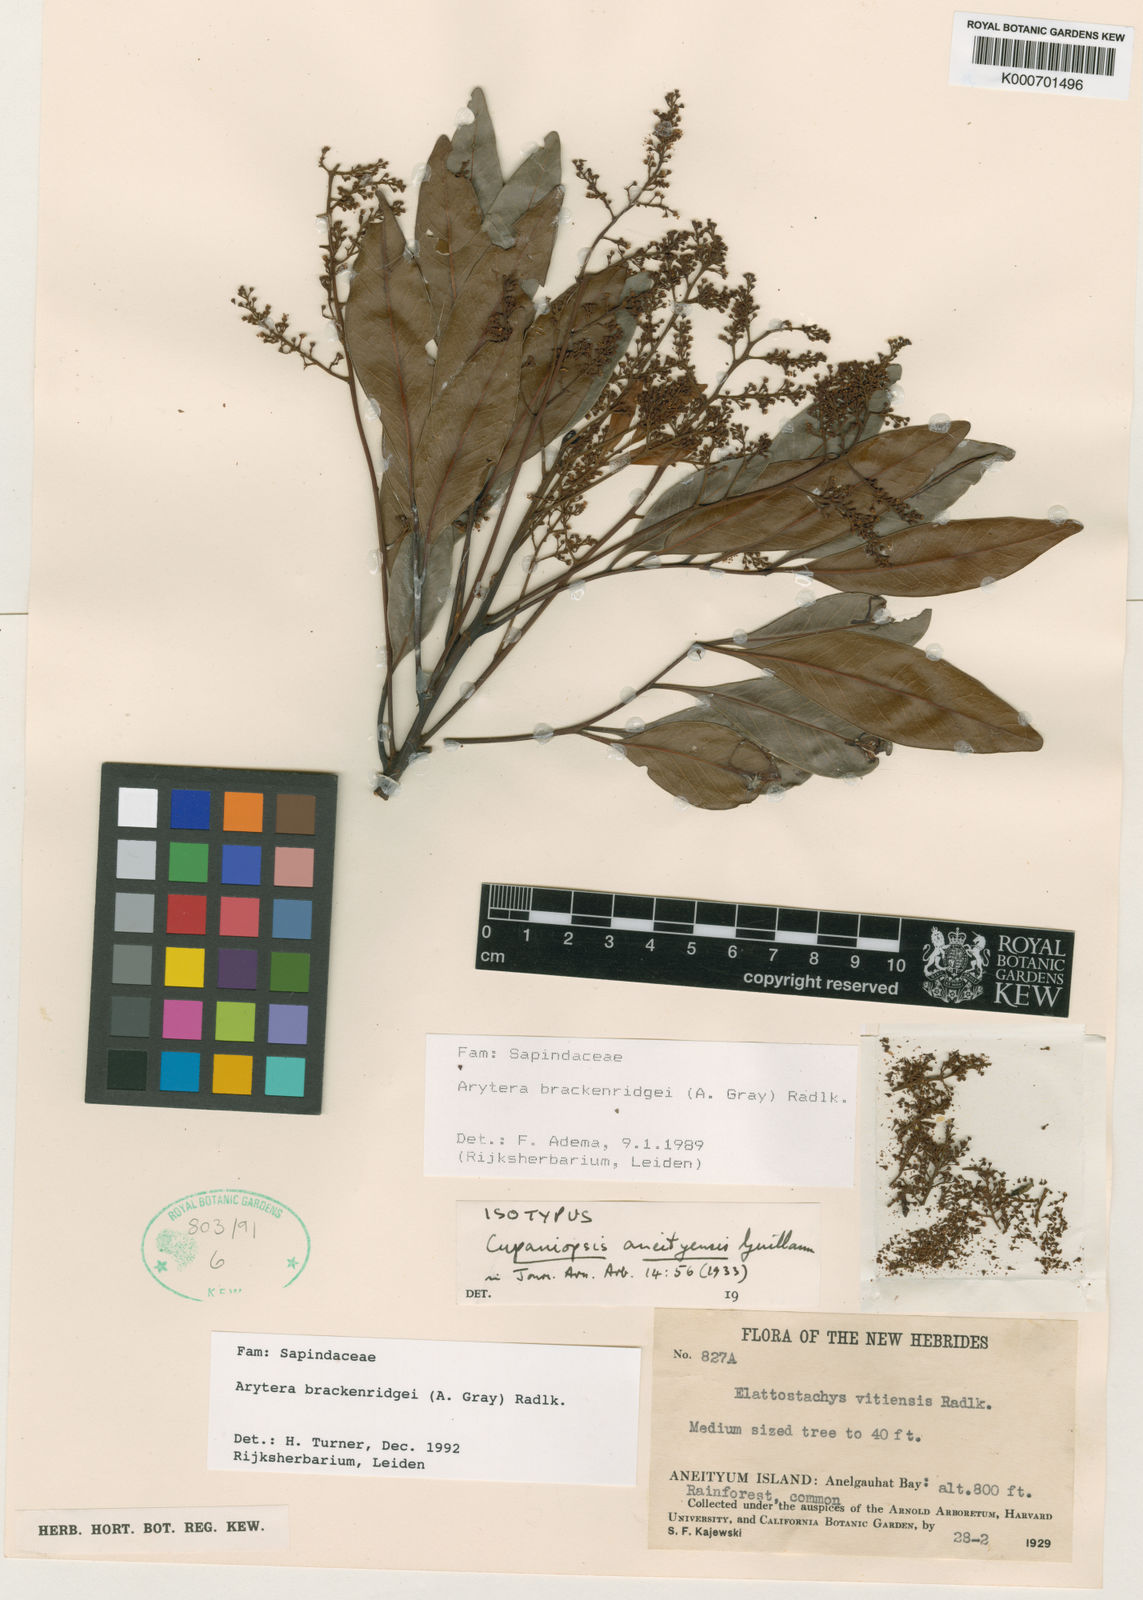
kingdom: Plantae
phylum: Tracheophyta
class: Magnoliopsida
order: Sapindales
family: Sapindaceae
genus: Lepidocupania
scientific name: Lepidocupania brackenridgei
